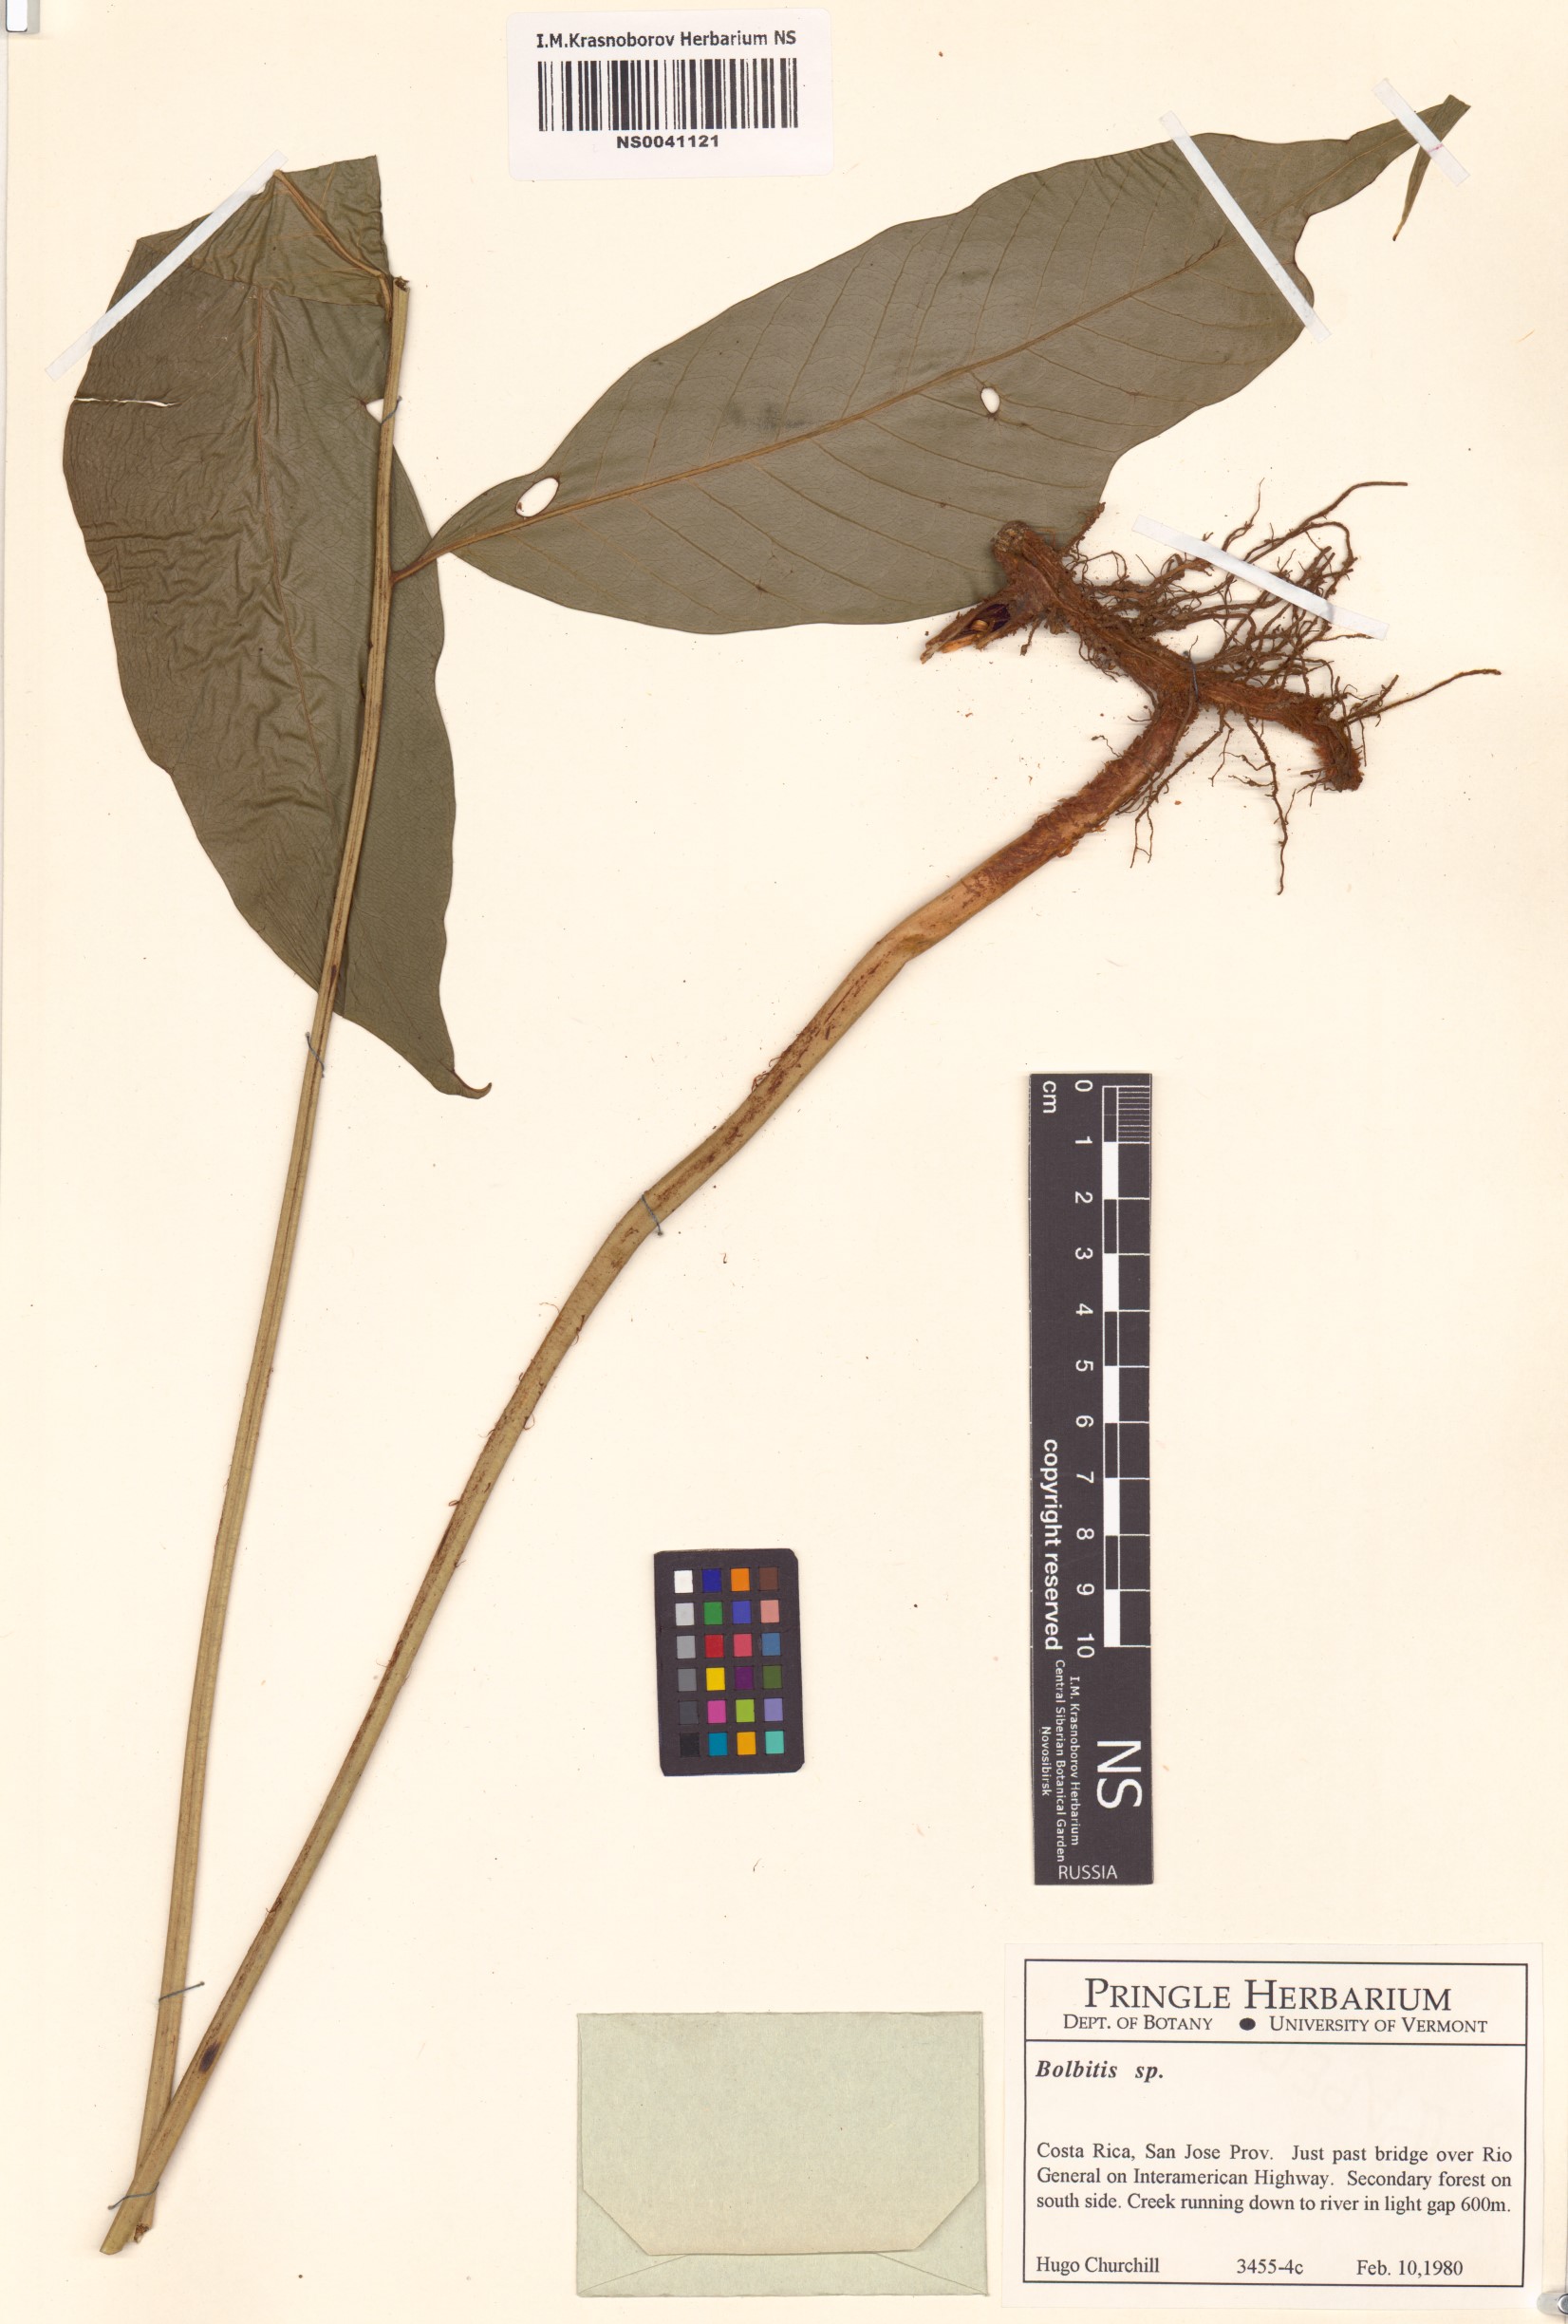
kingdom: Plantae
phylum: Tracheophyta
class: Polypodiopsida
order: Polypodiales
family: Dryopteridaceae
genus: Bolbitis
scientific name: Bolbitis
